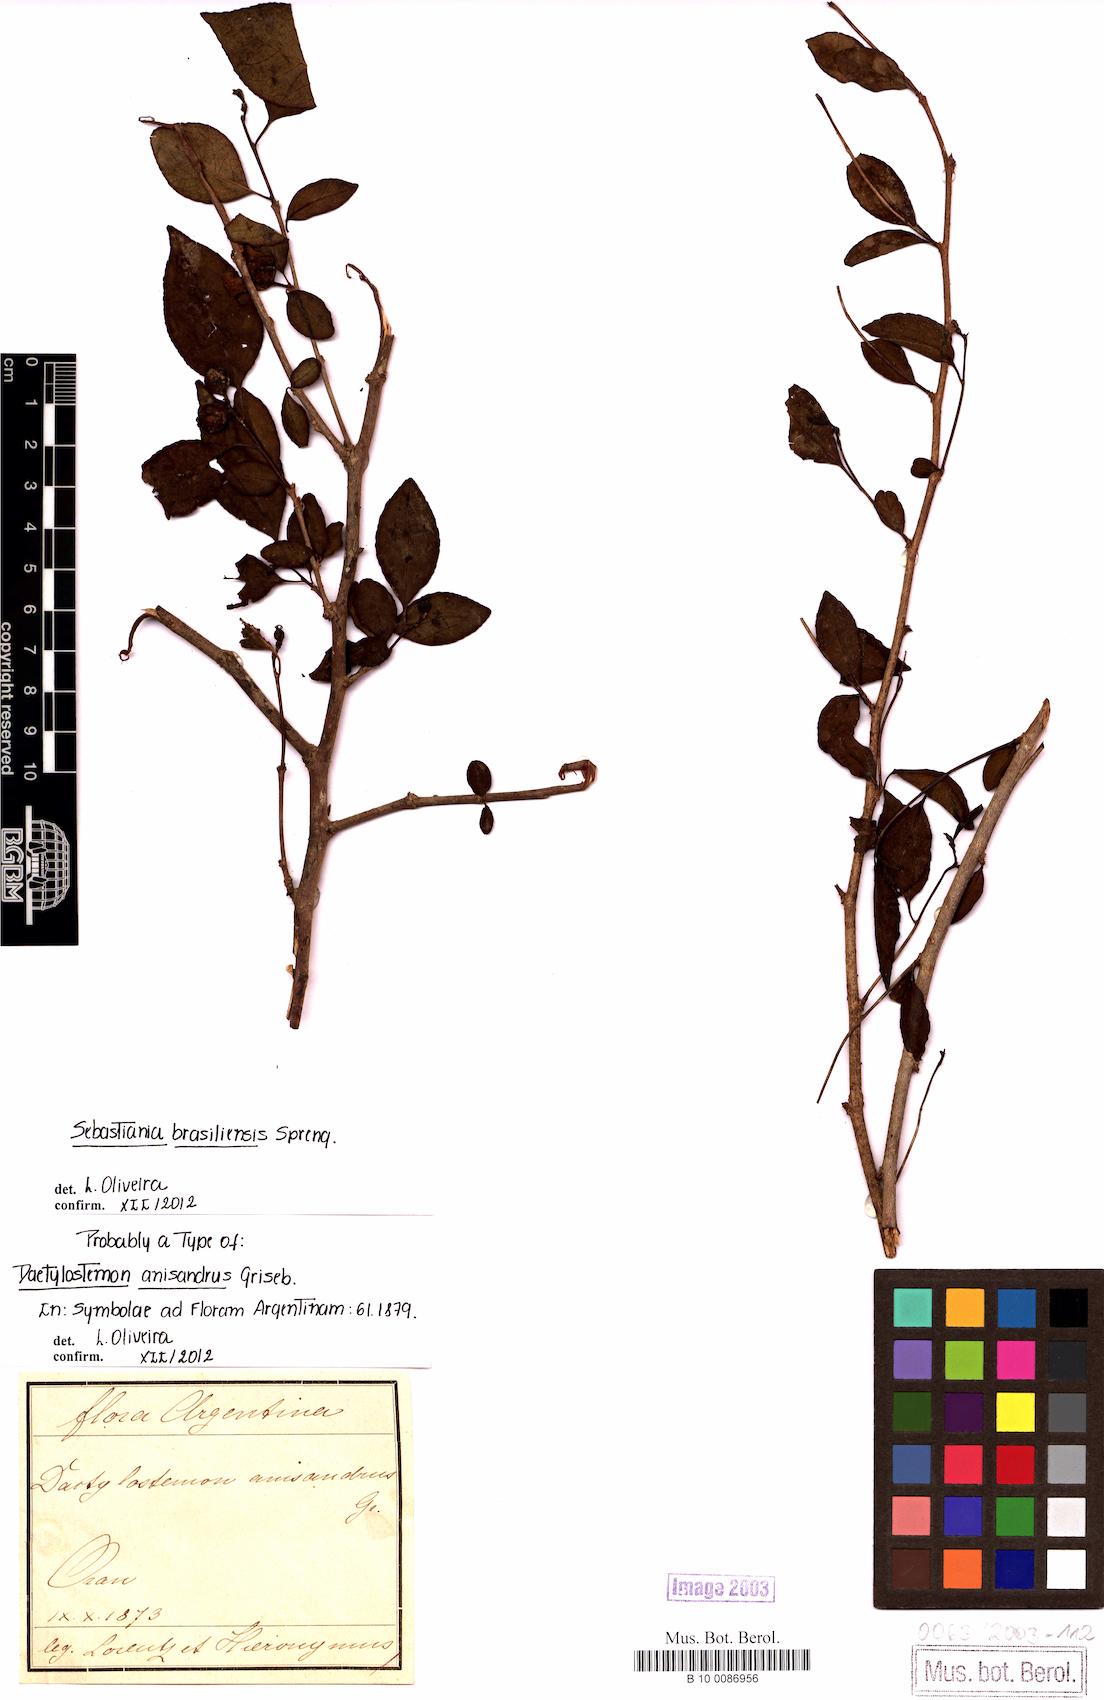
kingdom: Plantae
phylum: Tracheophyta
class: Magnoliopsida
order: Malpighiales
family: Euphorbiaceae
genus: Sebastiania
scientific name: Sebastiania brasiliensis
